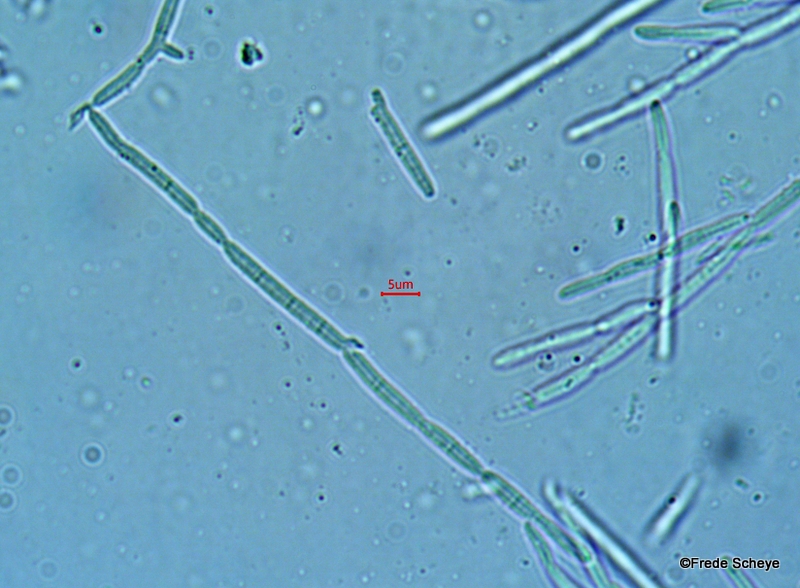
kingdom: Fungi
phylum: Ascomycota
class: Leotiomycetes
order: Helotiales
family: Calloriaceae
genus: Calloria
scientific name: Calloria urticae
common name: nælde-orangeskive
